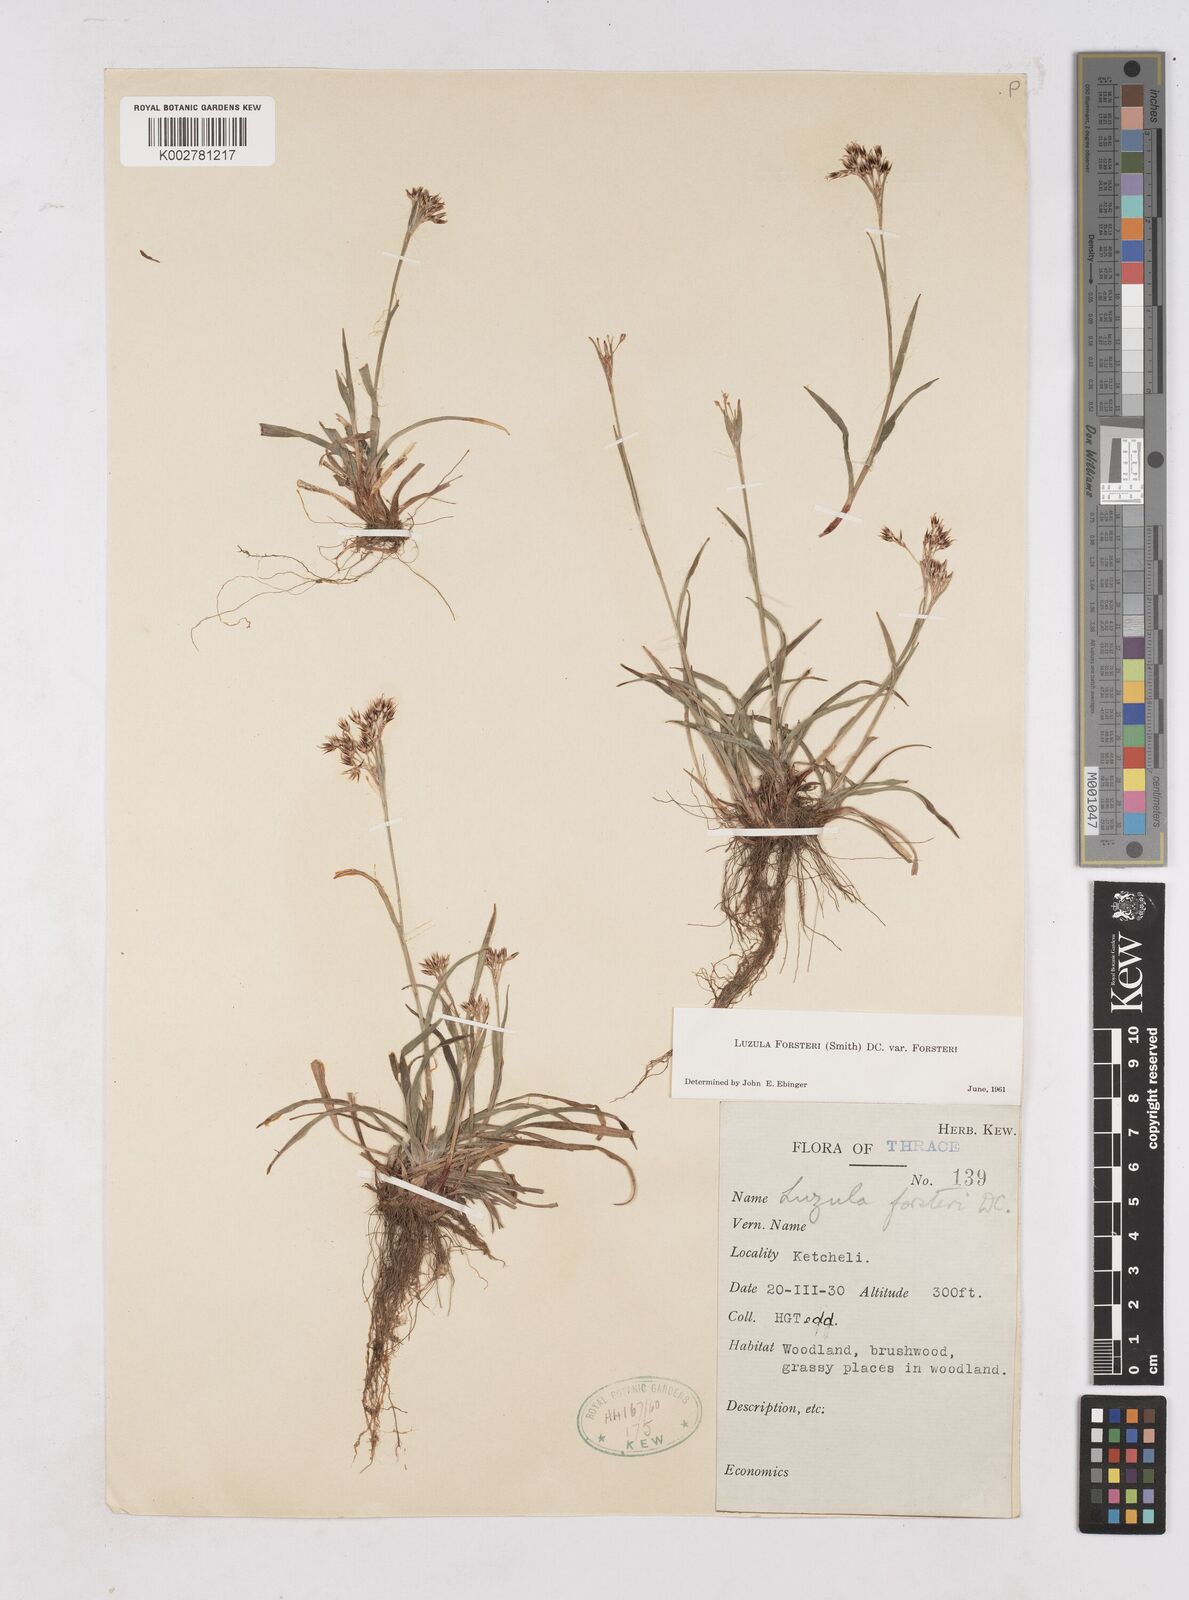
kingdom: Plantae
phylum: Tracheophyta
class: Liliopsida
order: Poales
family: Juncaceae
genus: Luzula
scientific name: Luzula forsteri
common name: Southern wood-rush
